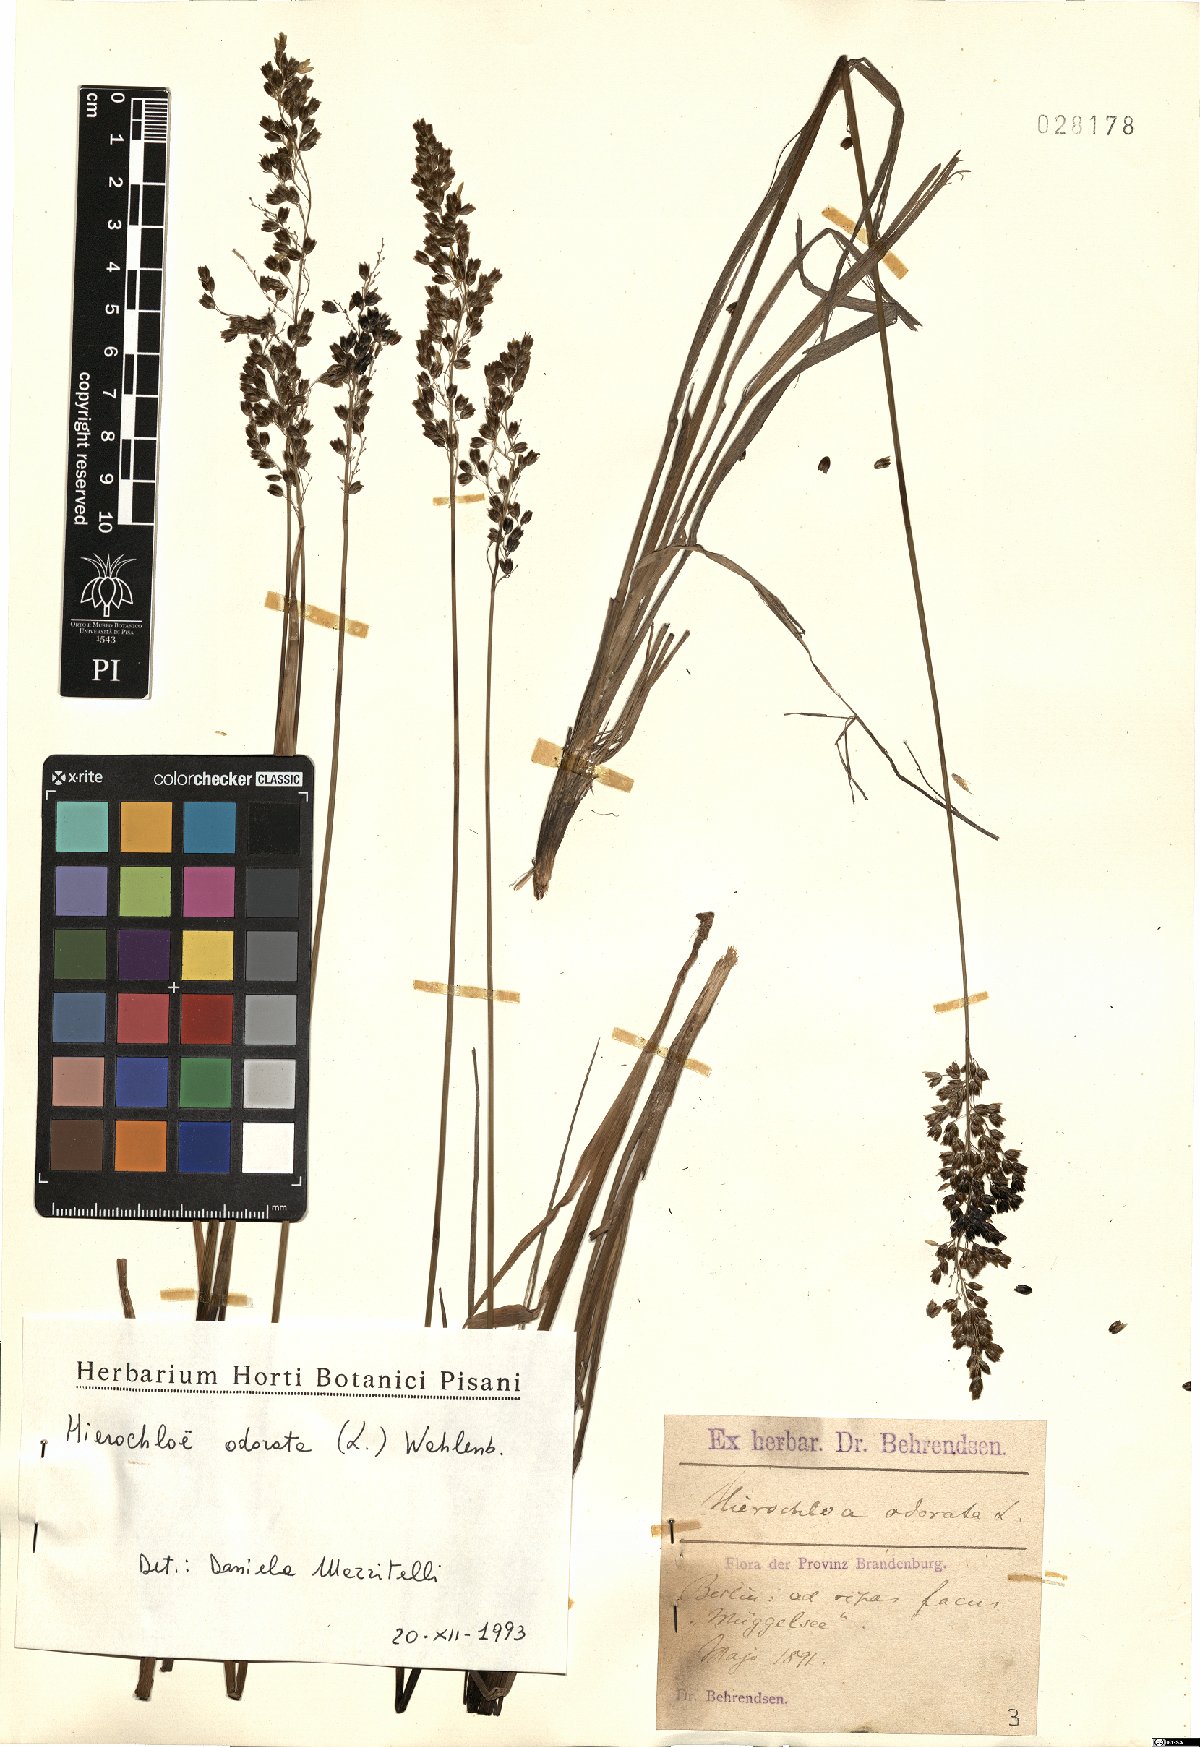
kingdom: Plantae
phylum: Tracheophyta
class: Liliopsida
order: Poales
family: Poaceae
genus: Anthoxanthum
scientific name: Anthoxanthum nitens
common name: Holy grass
